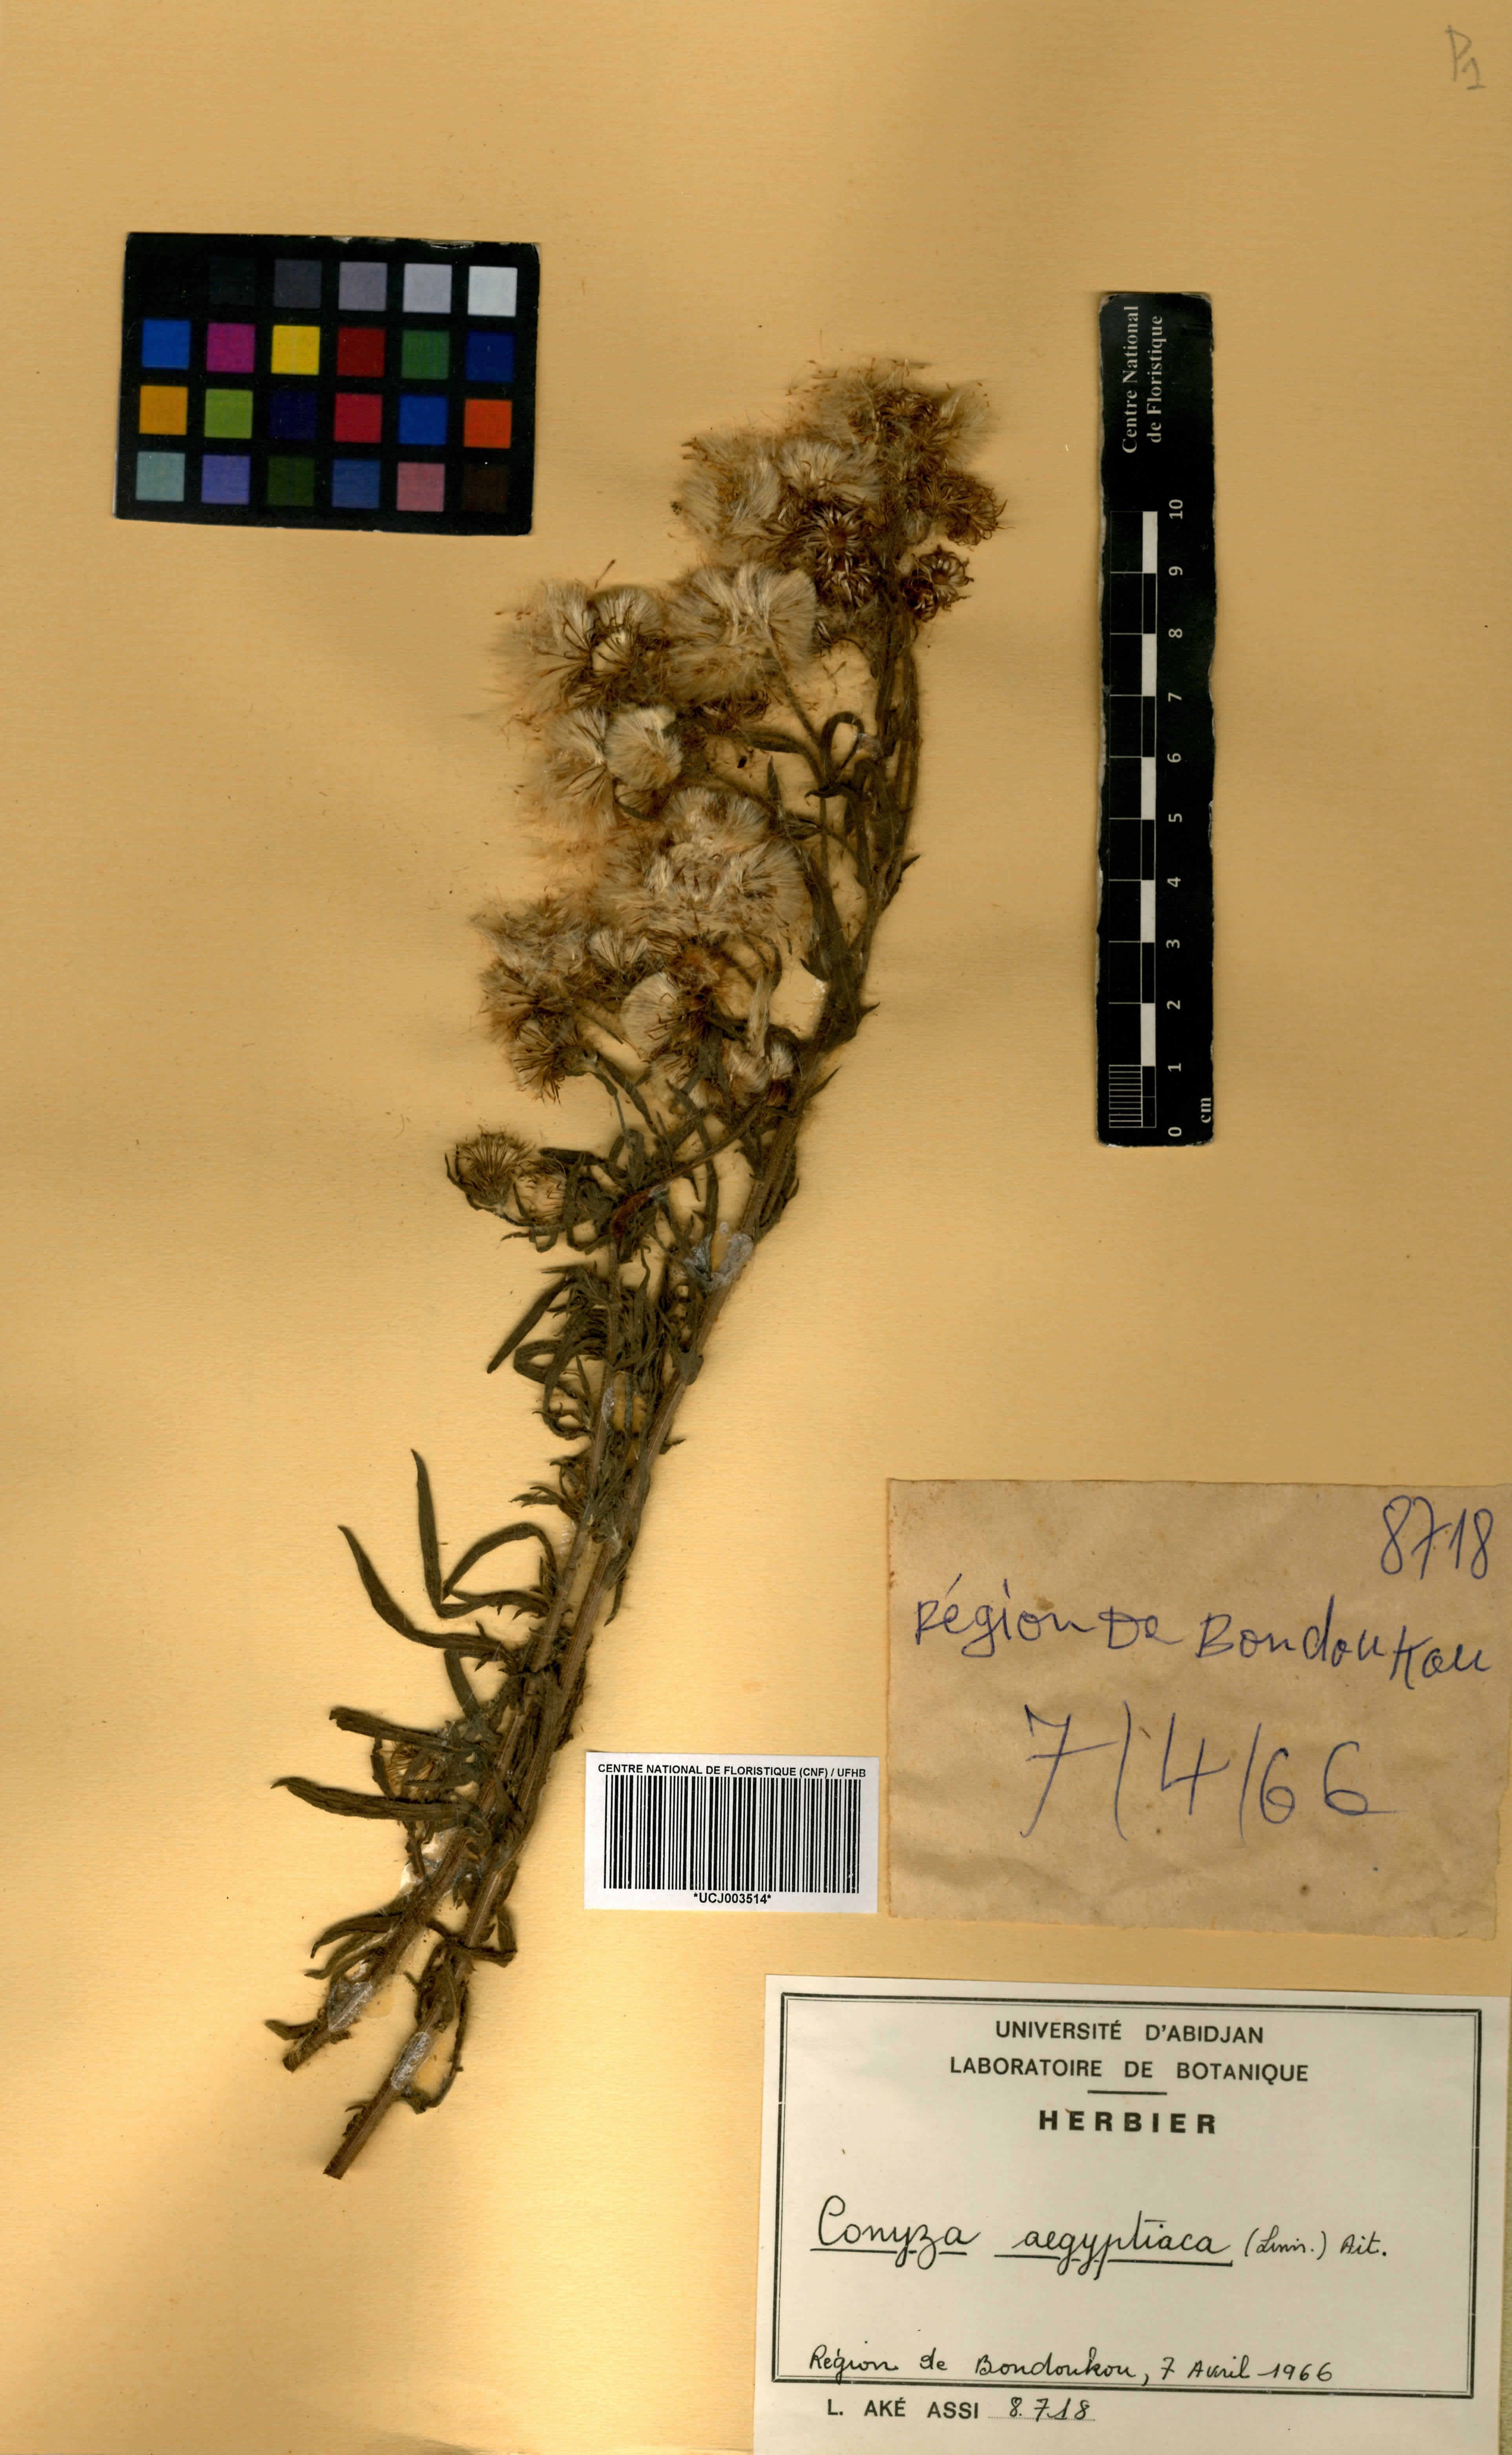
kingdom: Plantae
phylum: Tracheophyta
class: Magnoliopsida
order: Asterales
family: Asteraceae
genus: Nidorella
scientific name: Nidorella aegyptiaca
